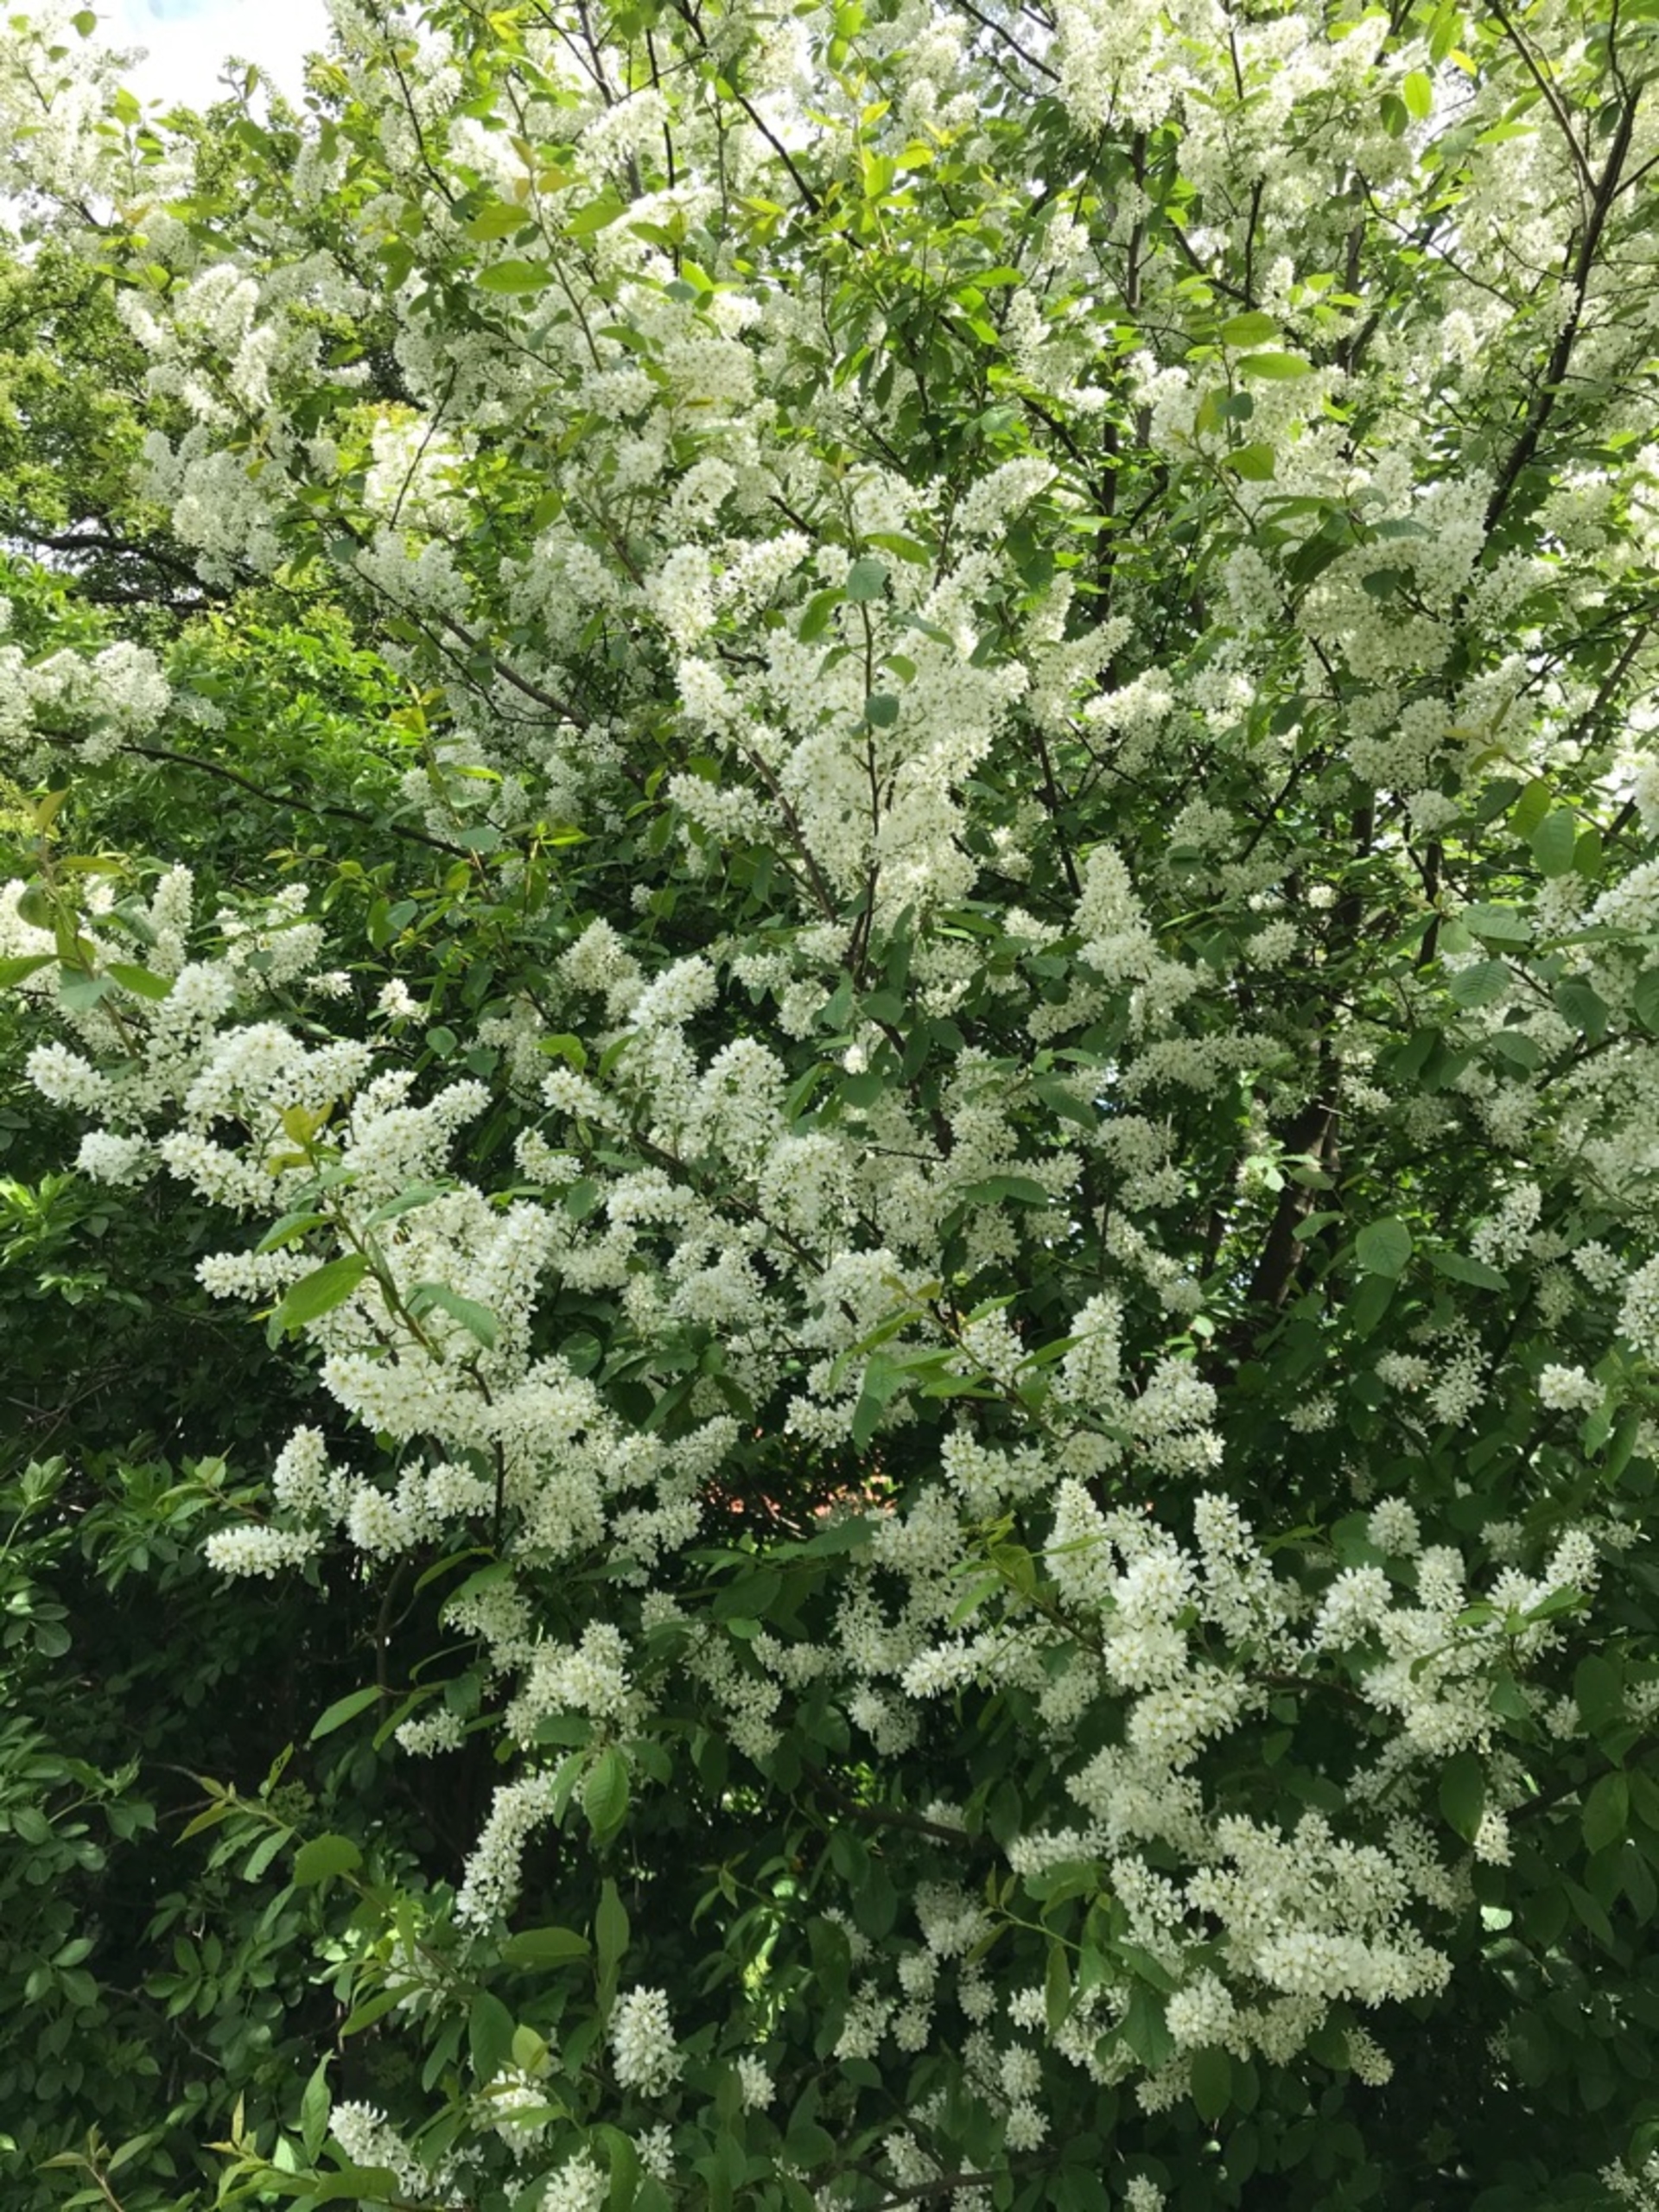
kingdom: Plantae
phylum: Tracheophyta
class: Magnoliopsida
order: Rosales
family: Rosaceae
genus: Prunus
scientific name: Prunus padus
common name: Almindelig hæg
